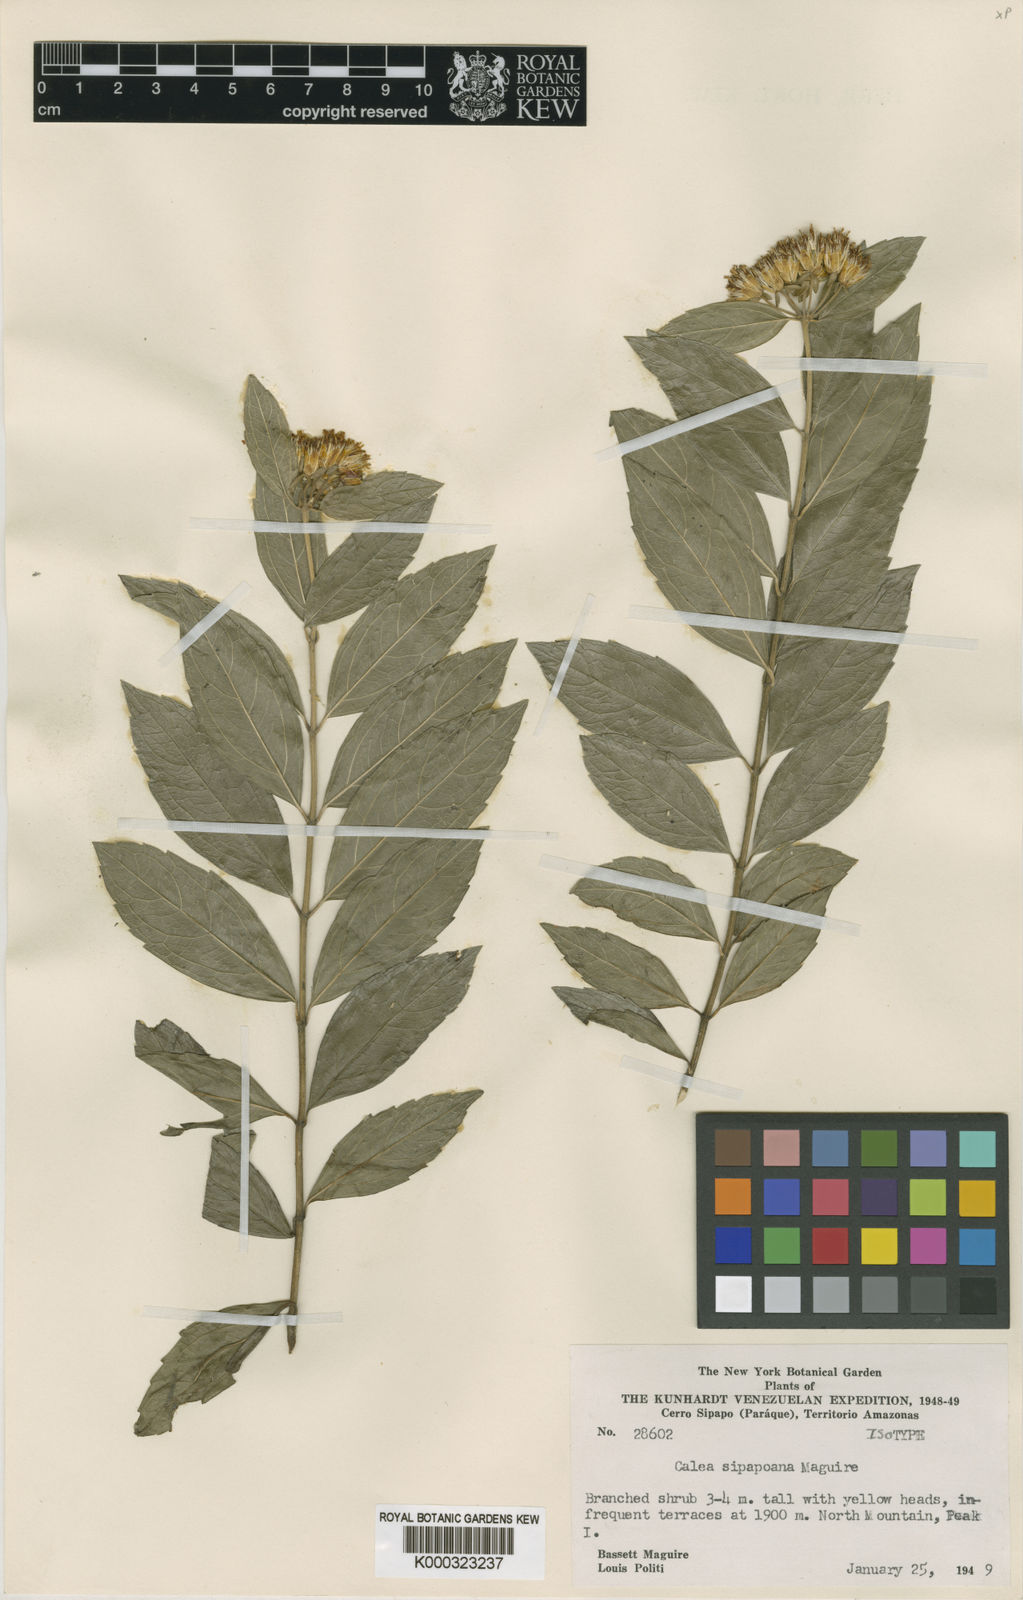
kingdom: Plantae
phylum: Tracheophyta
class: Magnoliopsida
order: Asterales
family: Asteraceae
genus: Calea
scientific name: Calea sipapoana
